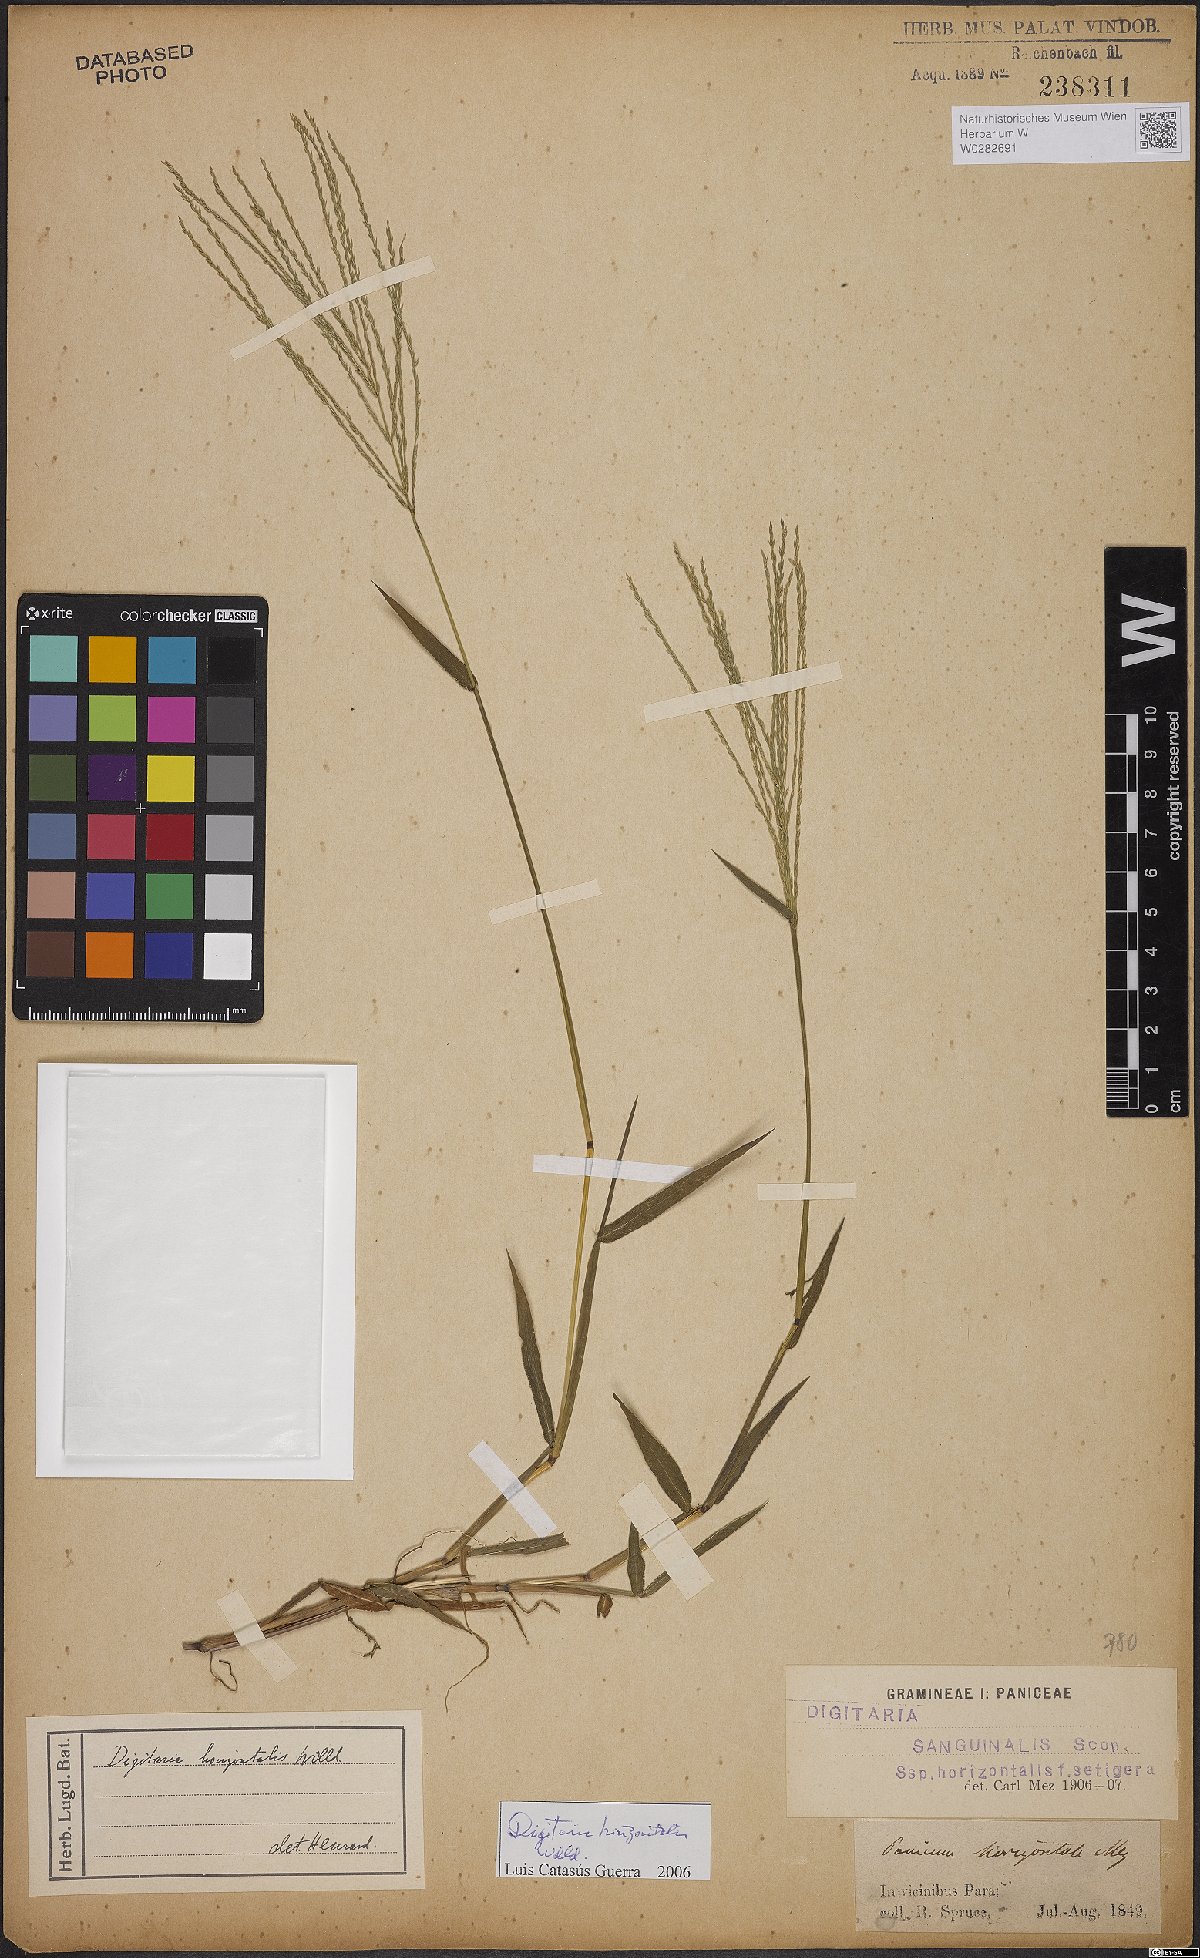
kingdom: Plantae
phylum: Tracheophyta
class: Liliopsida
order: Poales
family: Poaceae
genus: Digitaria
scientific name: Digitaria horizontalis
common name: Jamaican crabgrass
